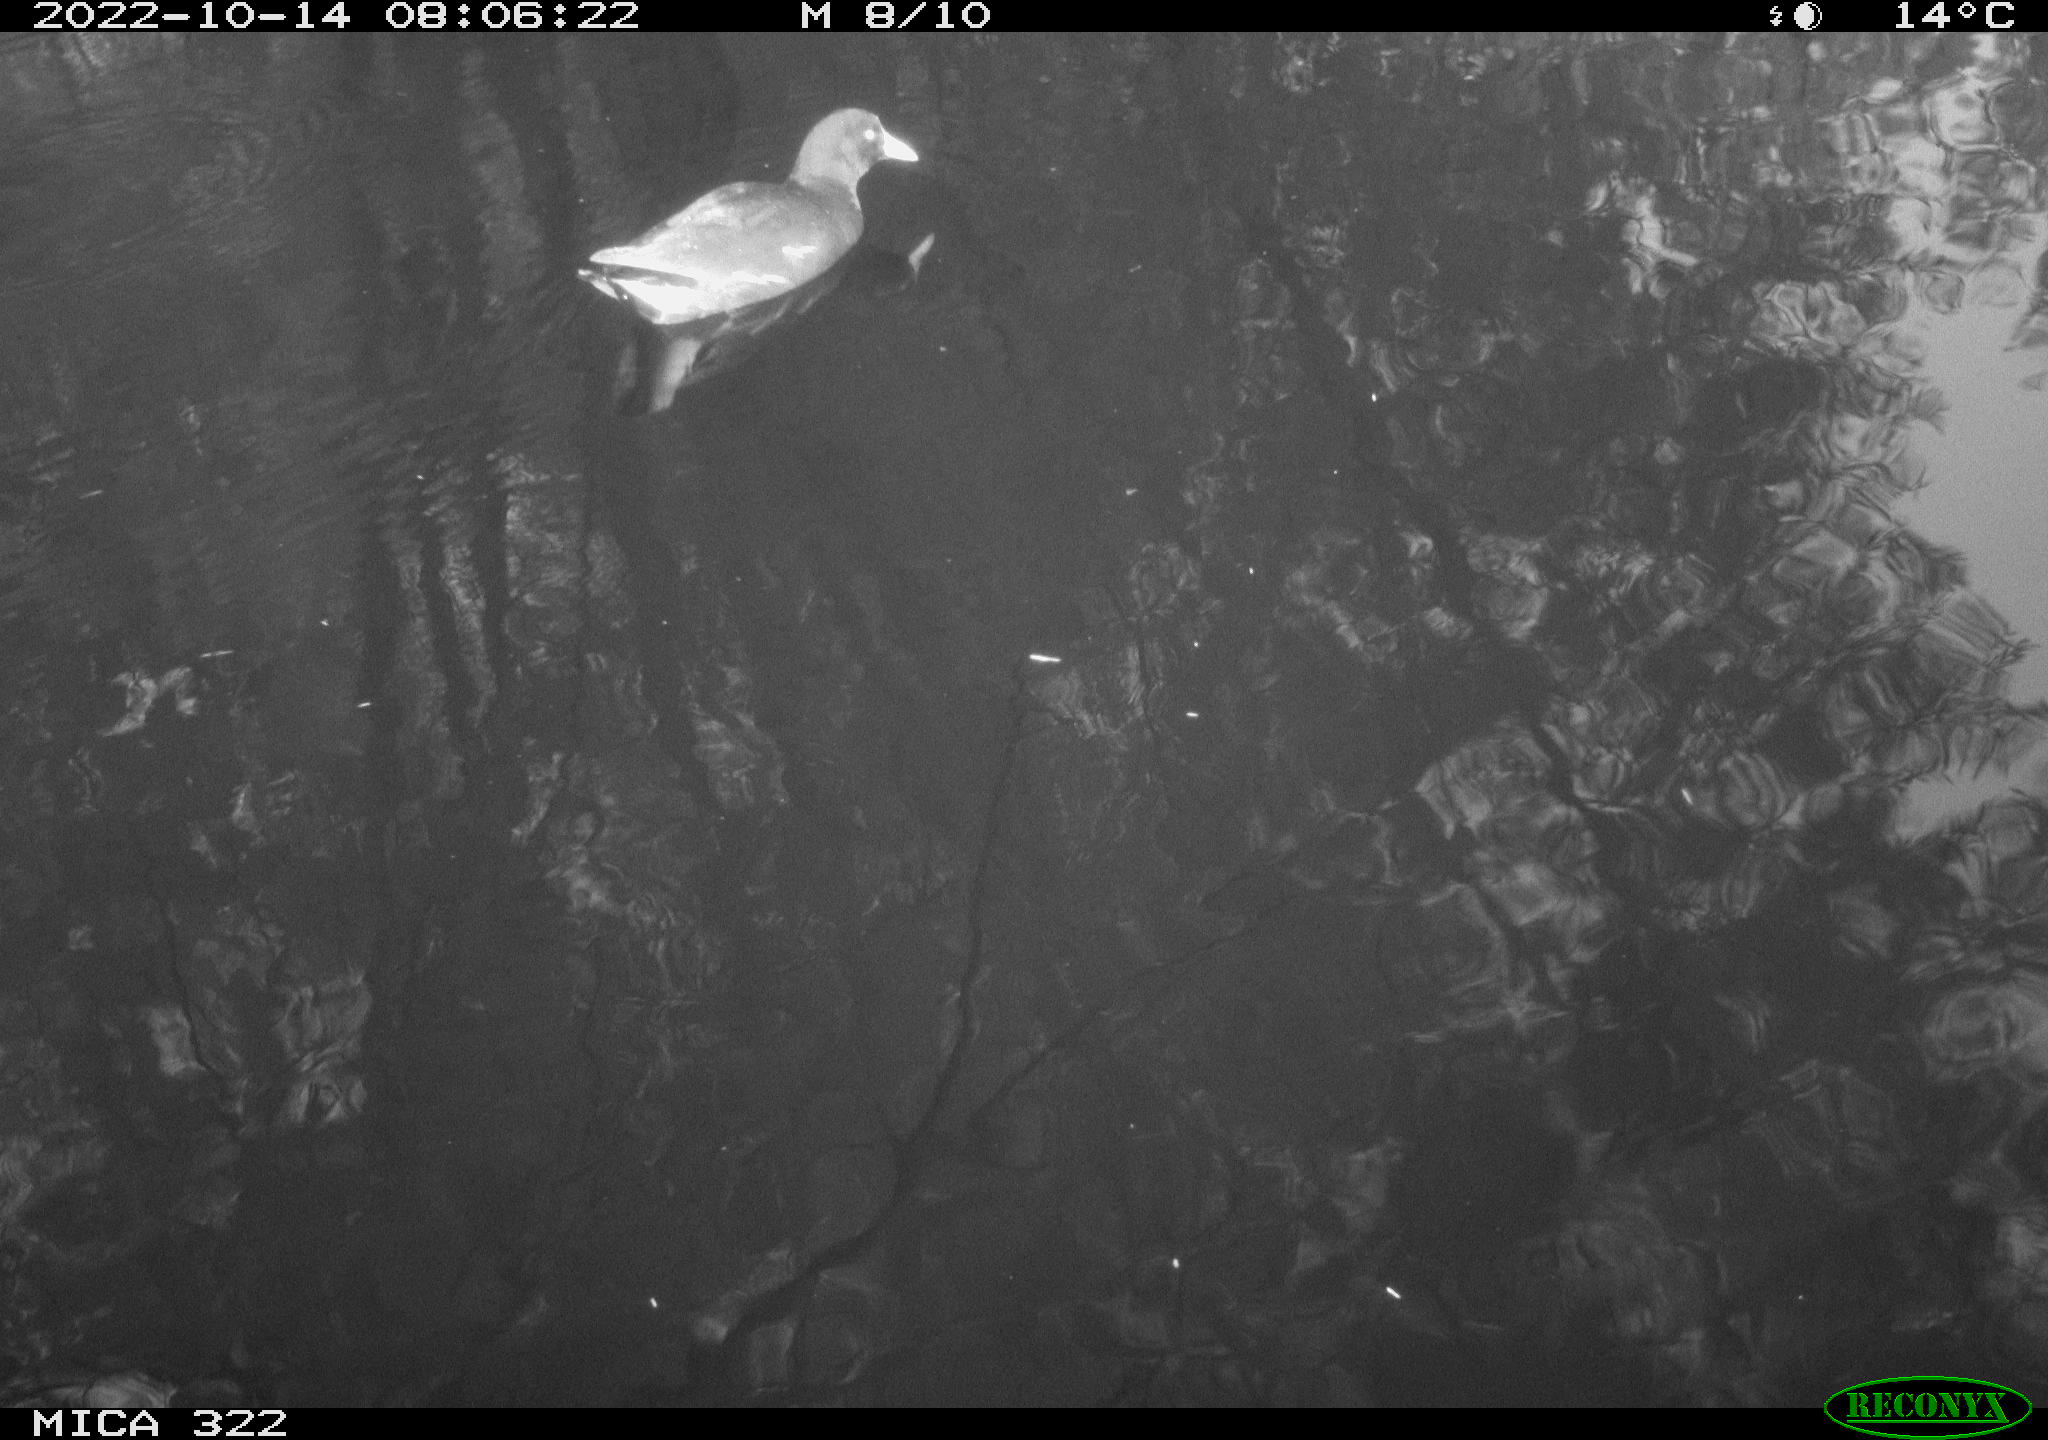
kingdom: Animalia
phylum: Chordata
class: Aves
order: Gruiformes
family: Rallidae
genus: Gallinula
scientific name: Gallinula chloropus
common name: Common moorhen
